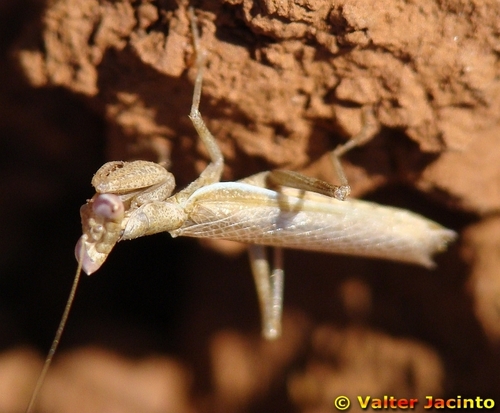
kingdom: Animalia
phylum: Arthropoda
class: Insecta
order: Mantodea
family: Amelidae
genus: Ameles
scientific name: Ameles spallanzania
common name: European dwarf mantis
